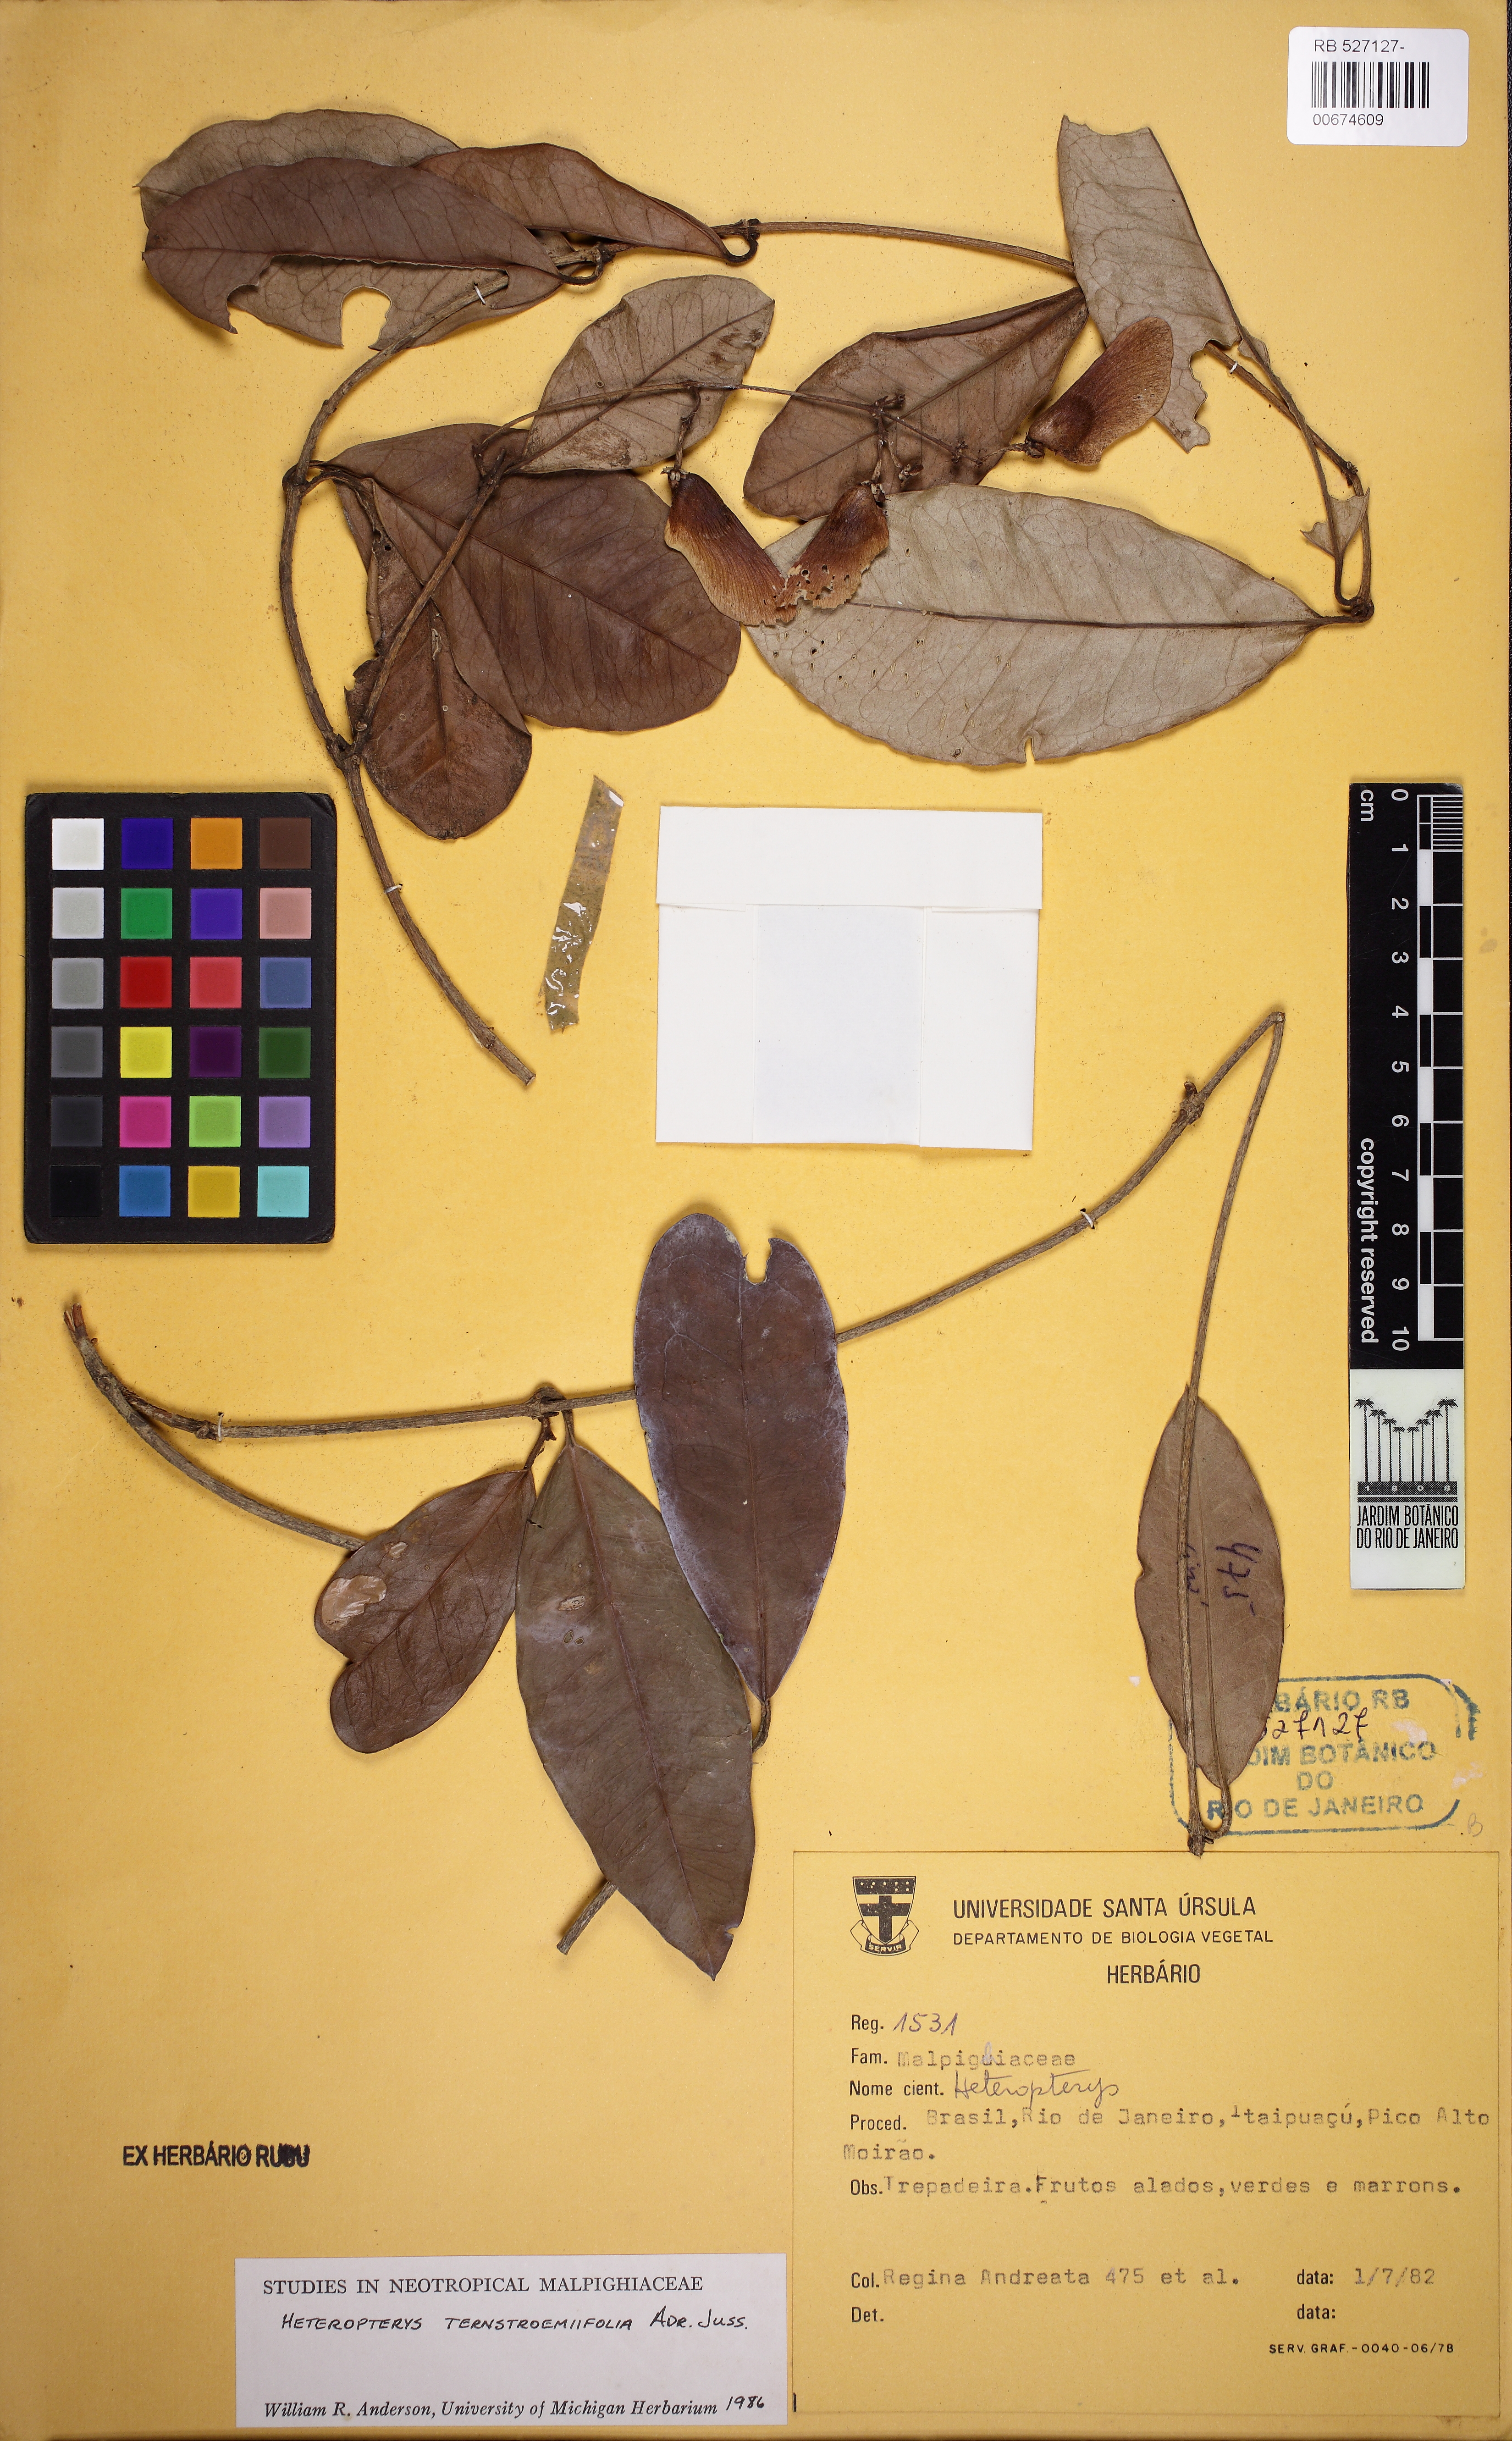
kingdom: Plantae
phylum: Tracheophyta
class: Magnoliopsida
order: Malpighiales
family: Malpighiaceae
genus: Heteropterys
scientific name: Heteropterys ternstroemiifolia
